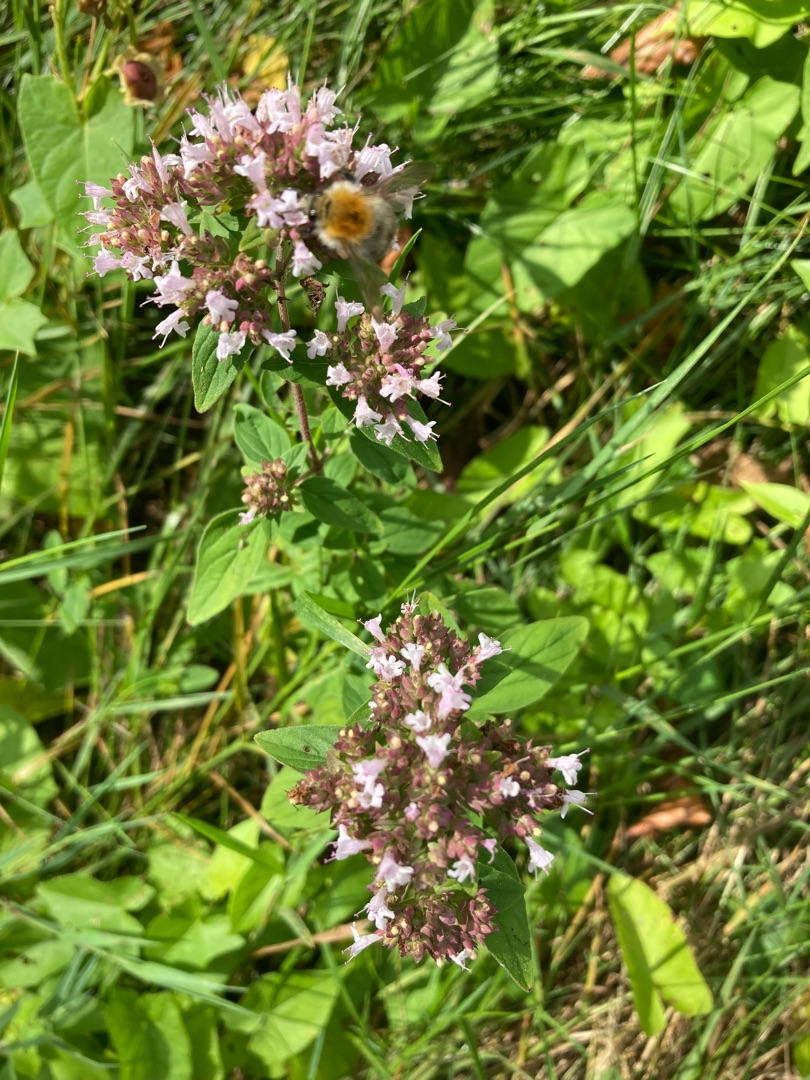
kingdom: Plantae
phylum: Tracheophyta
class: Magnoliopsida
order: Lamiales
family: Lamiaceae
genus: Origanum
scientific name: Origanum vulgare
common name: Merian
